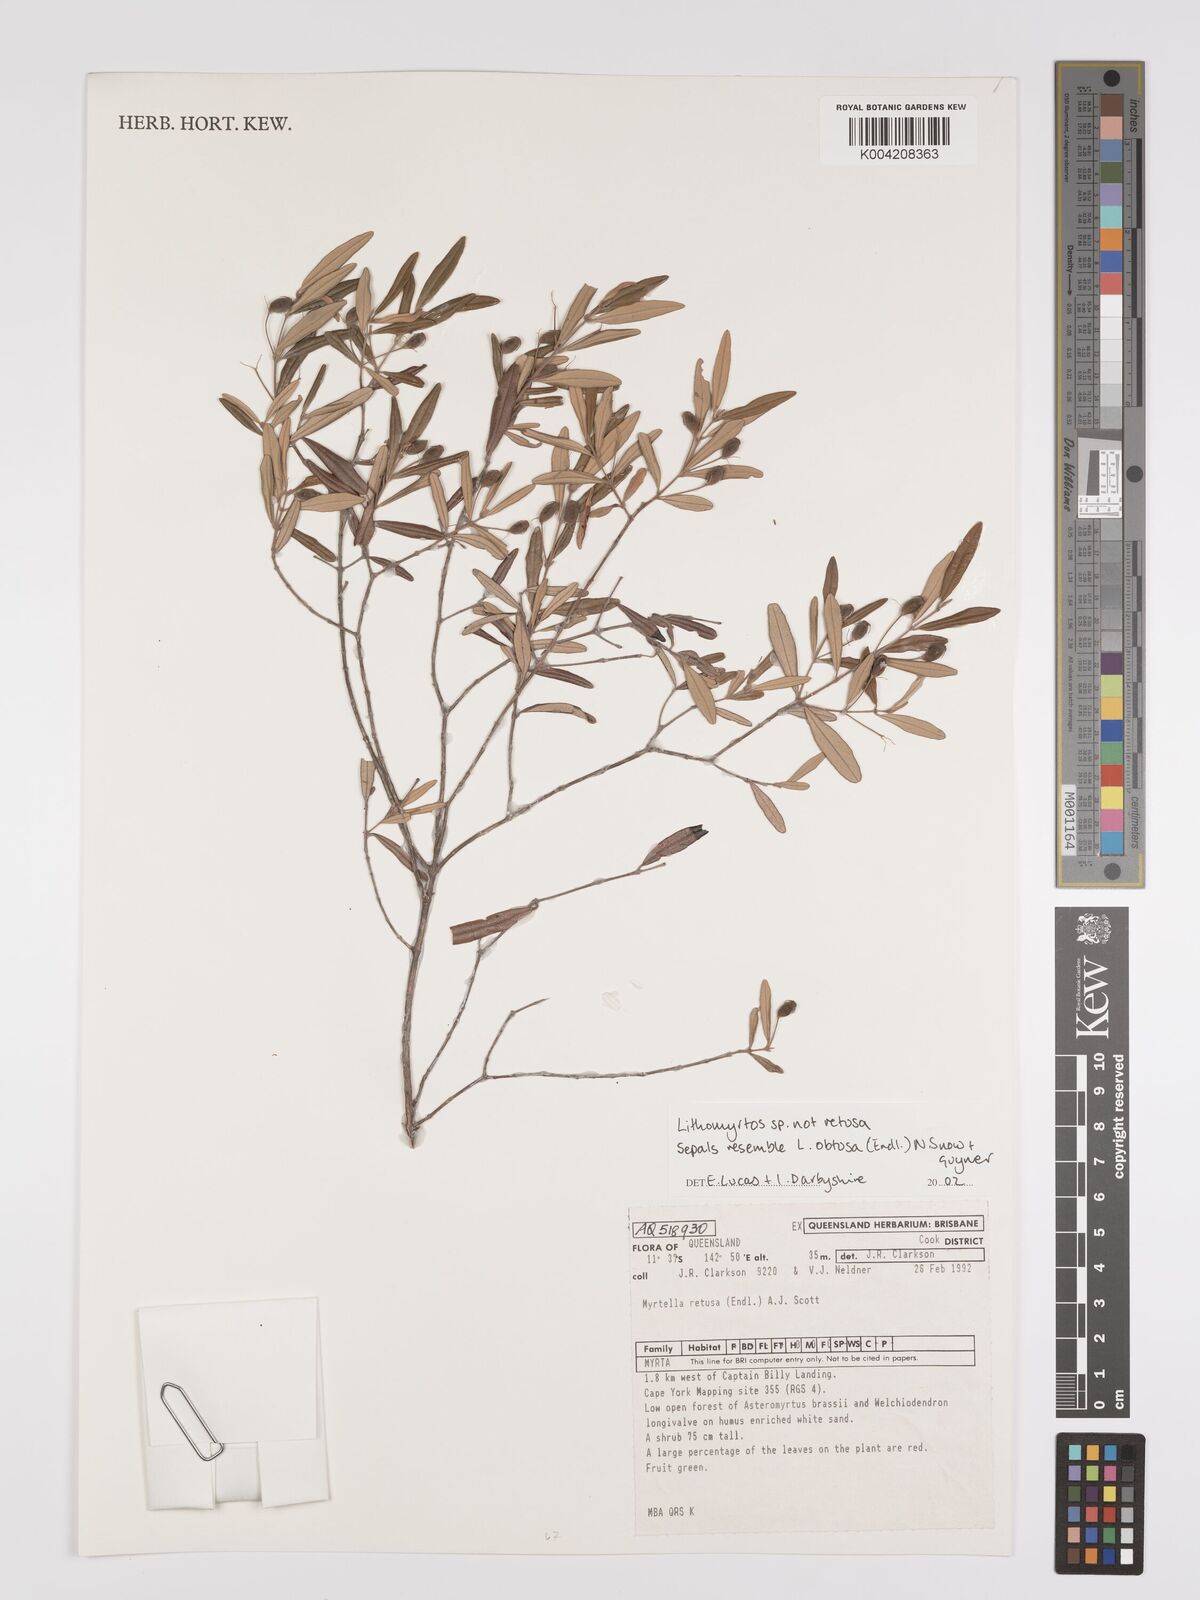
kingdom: Plantae
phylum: Tracheophyta
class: Magnoliopsida
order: Myrtales
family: Myrtaceae
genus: Lithomyrtus
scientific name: Lithomyrtus
